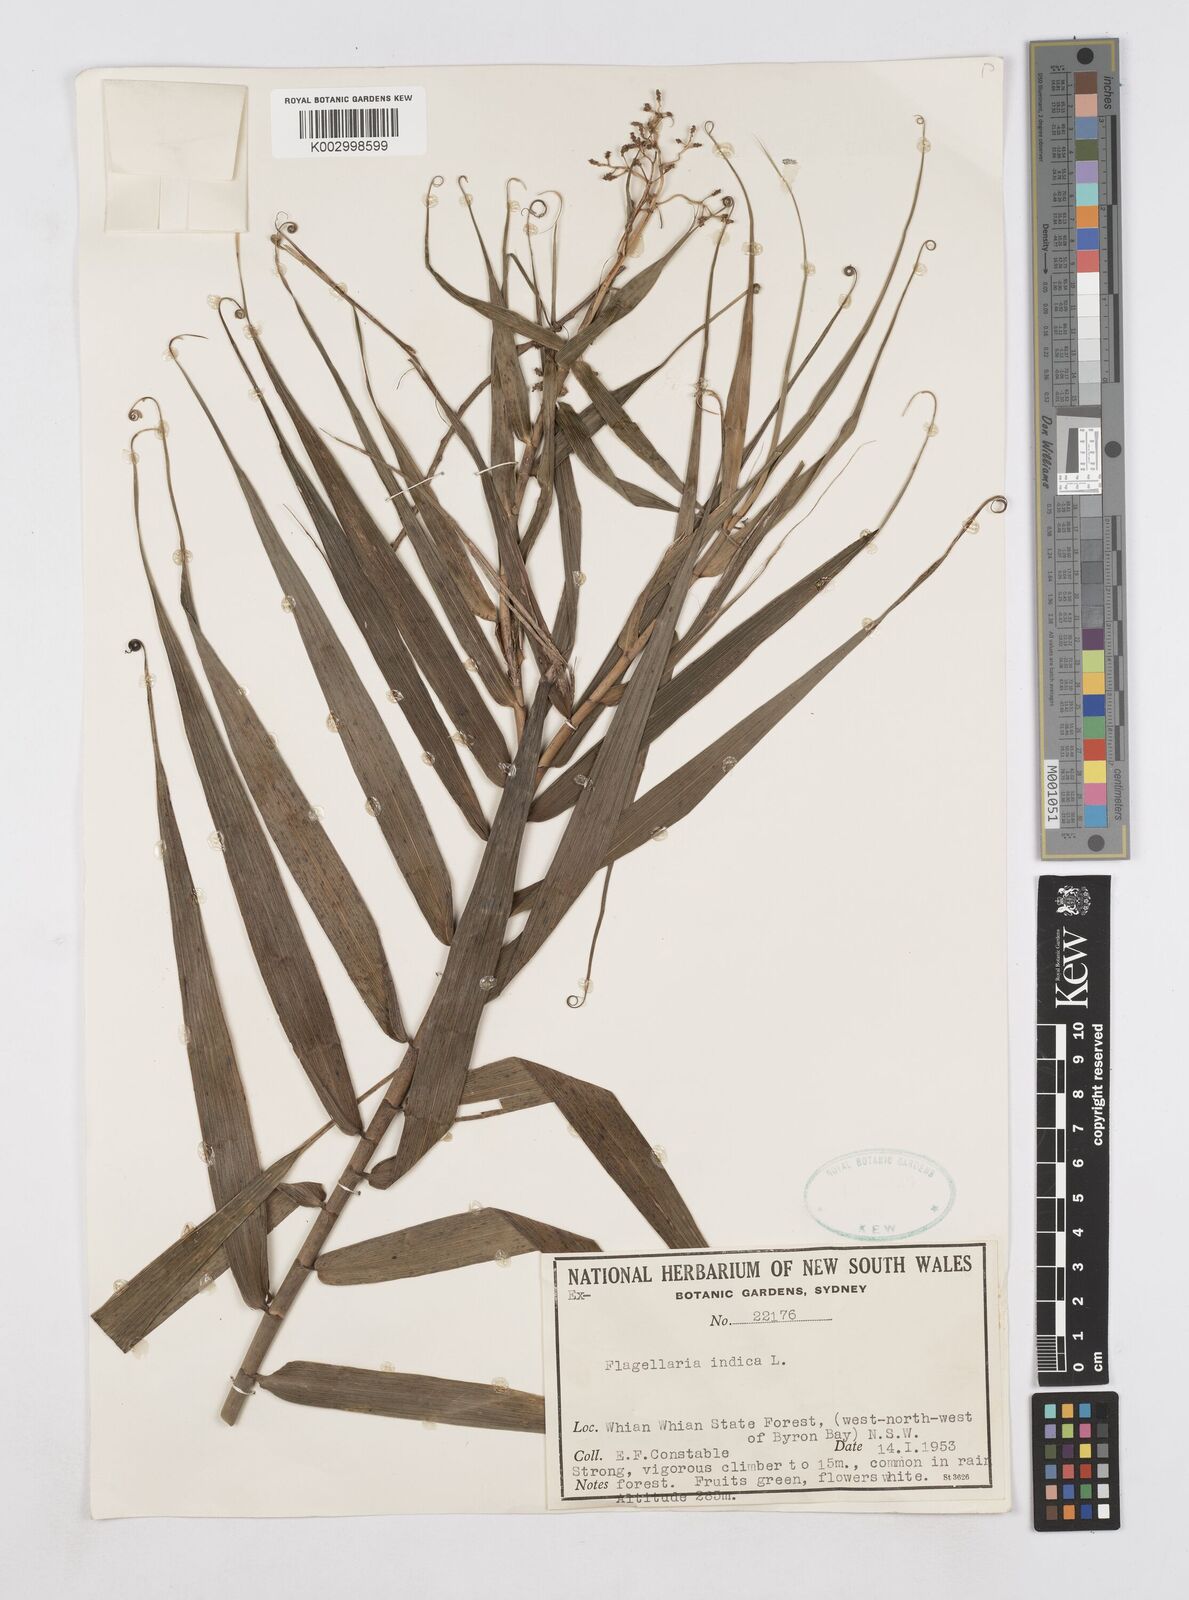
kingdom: Plantae
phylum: Tracheophyta
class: Liliopsida
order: Poales
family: Flagellariaceae
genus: Flagellaria
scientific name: Flagellaria indica
